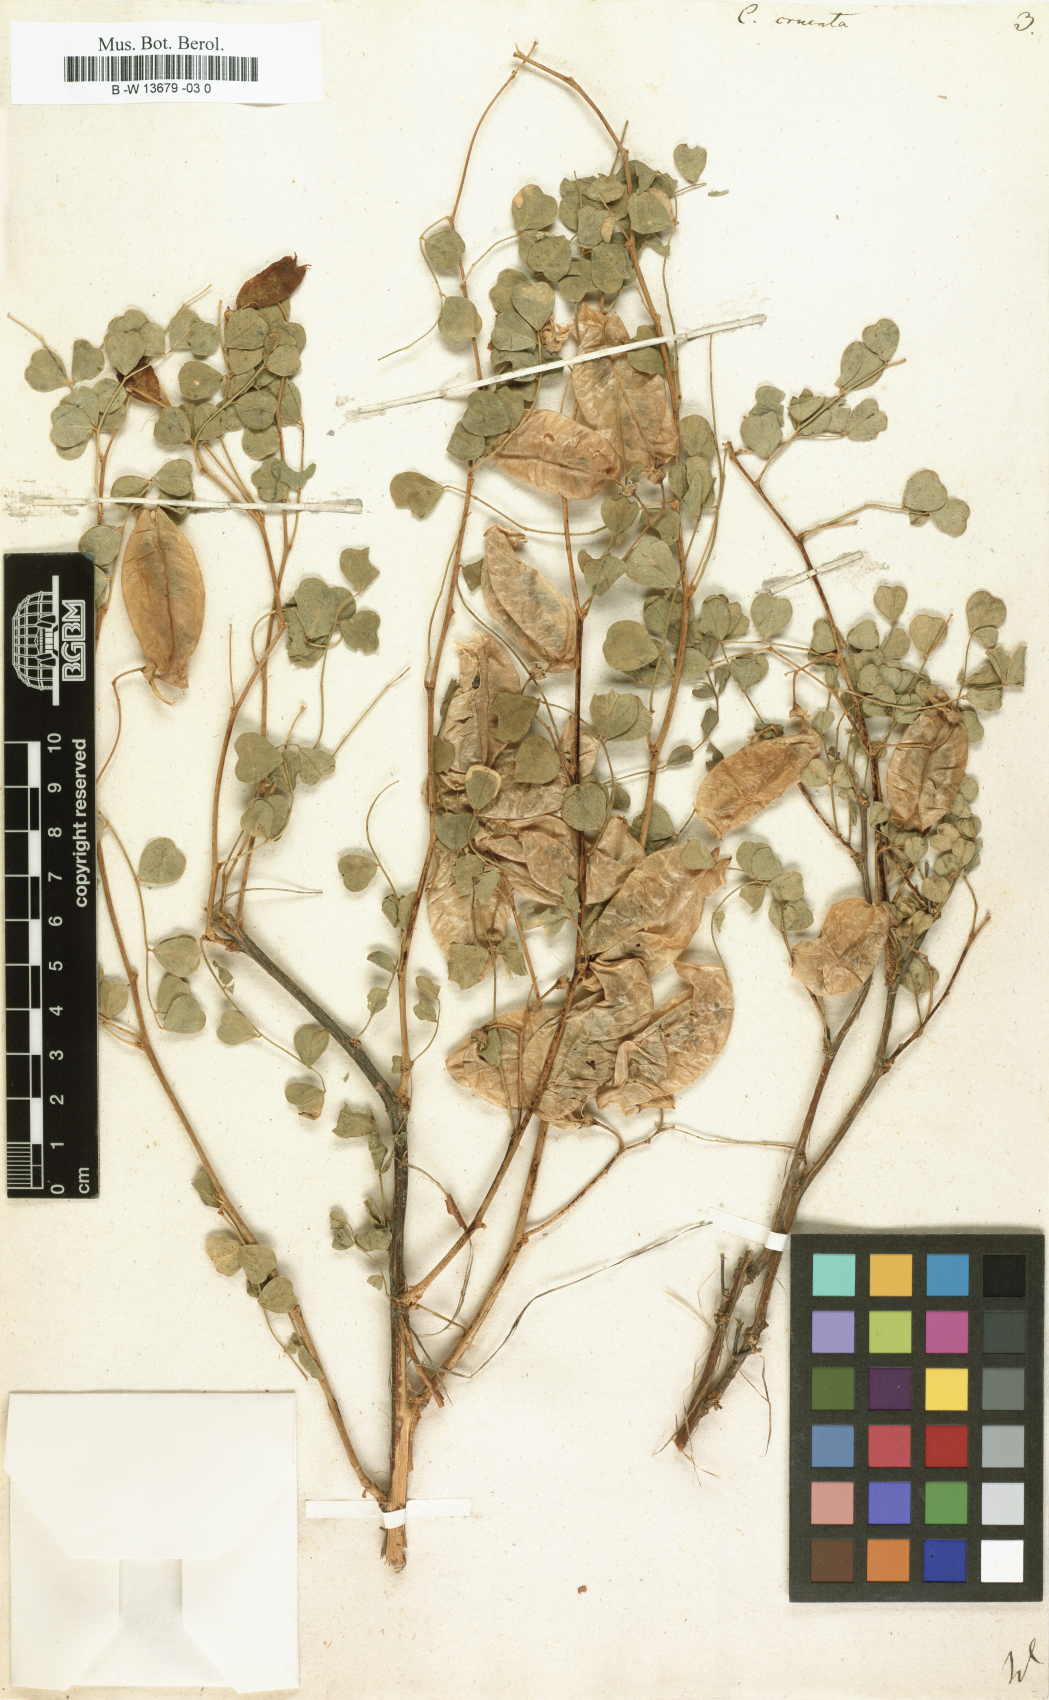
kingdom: Plantae
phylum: Tracheophyta
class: Magnoliopsida
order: Fabales
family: Fabaceae
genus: Colutea
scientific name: Colutea orientalis
